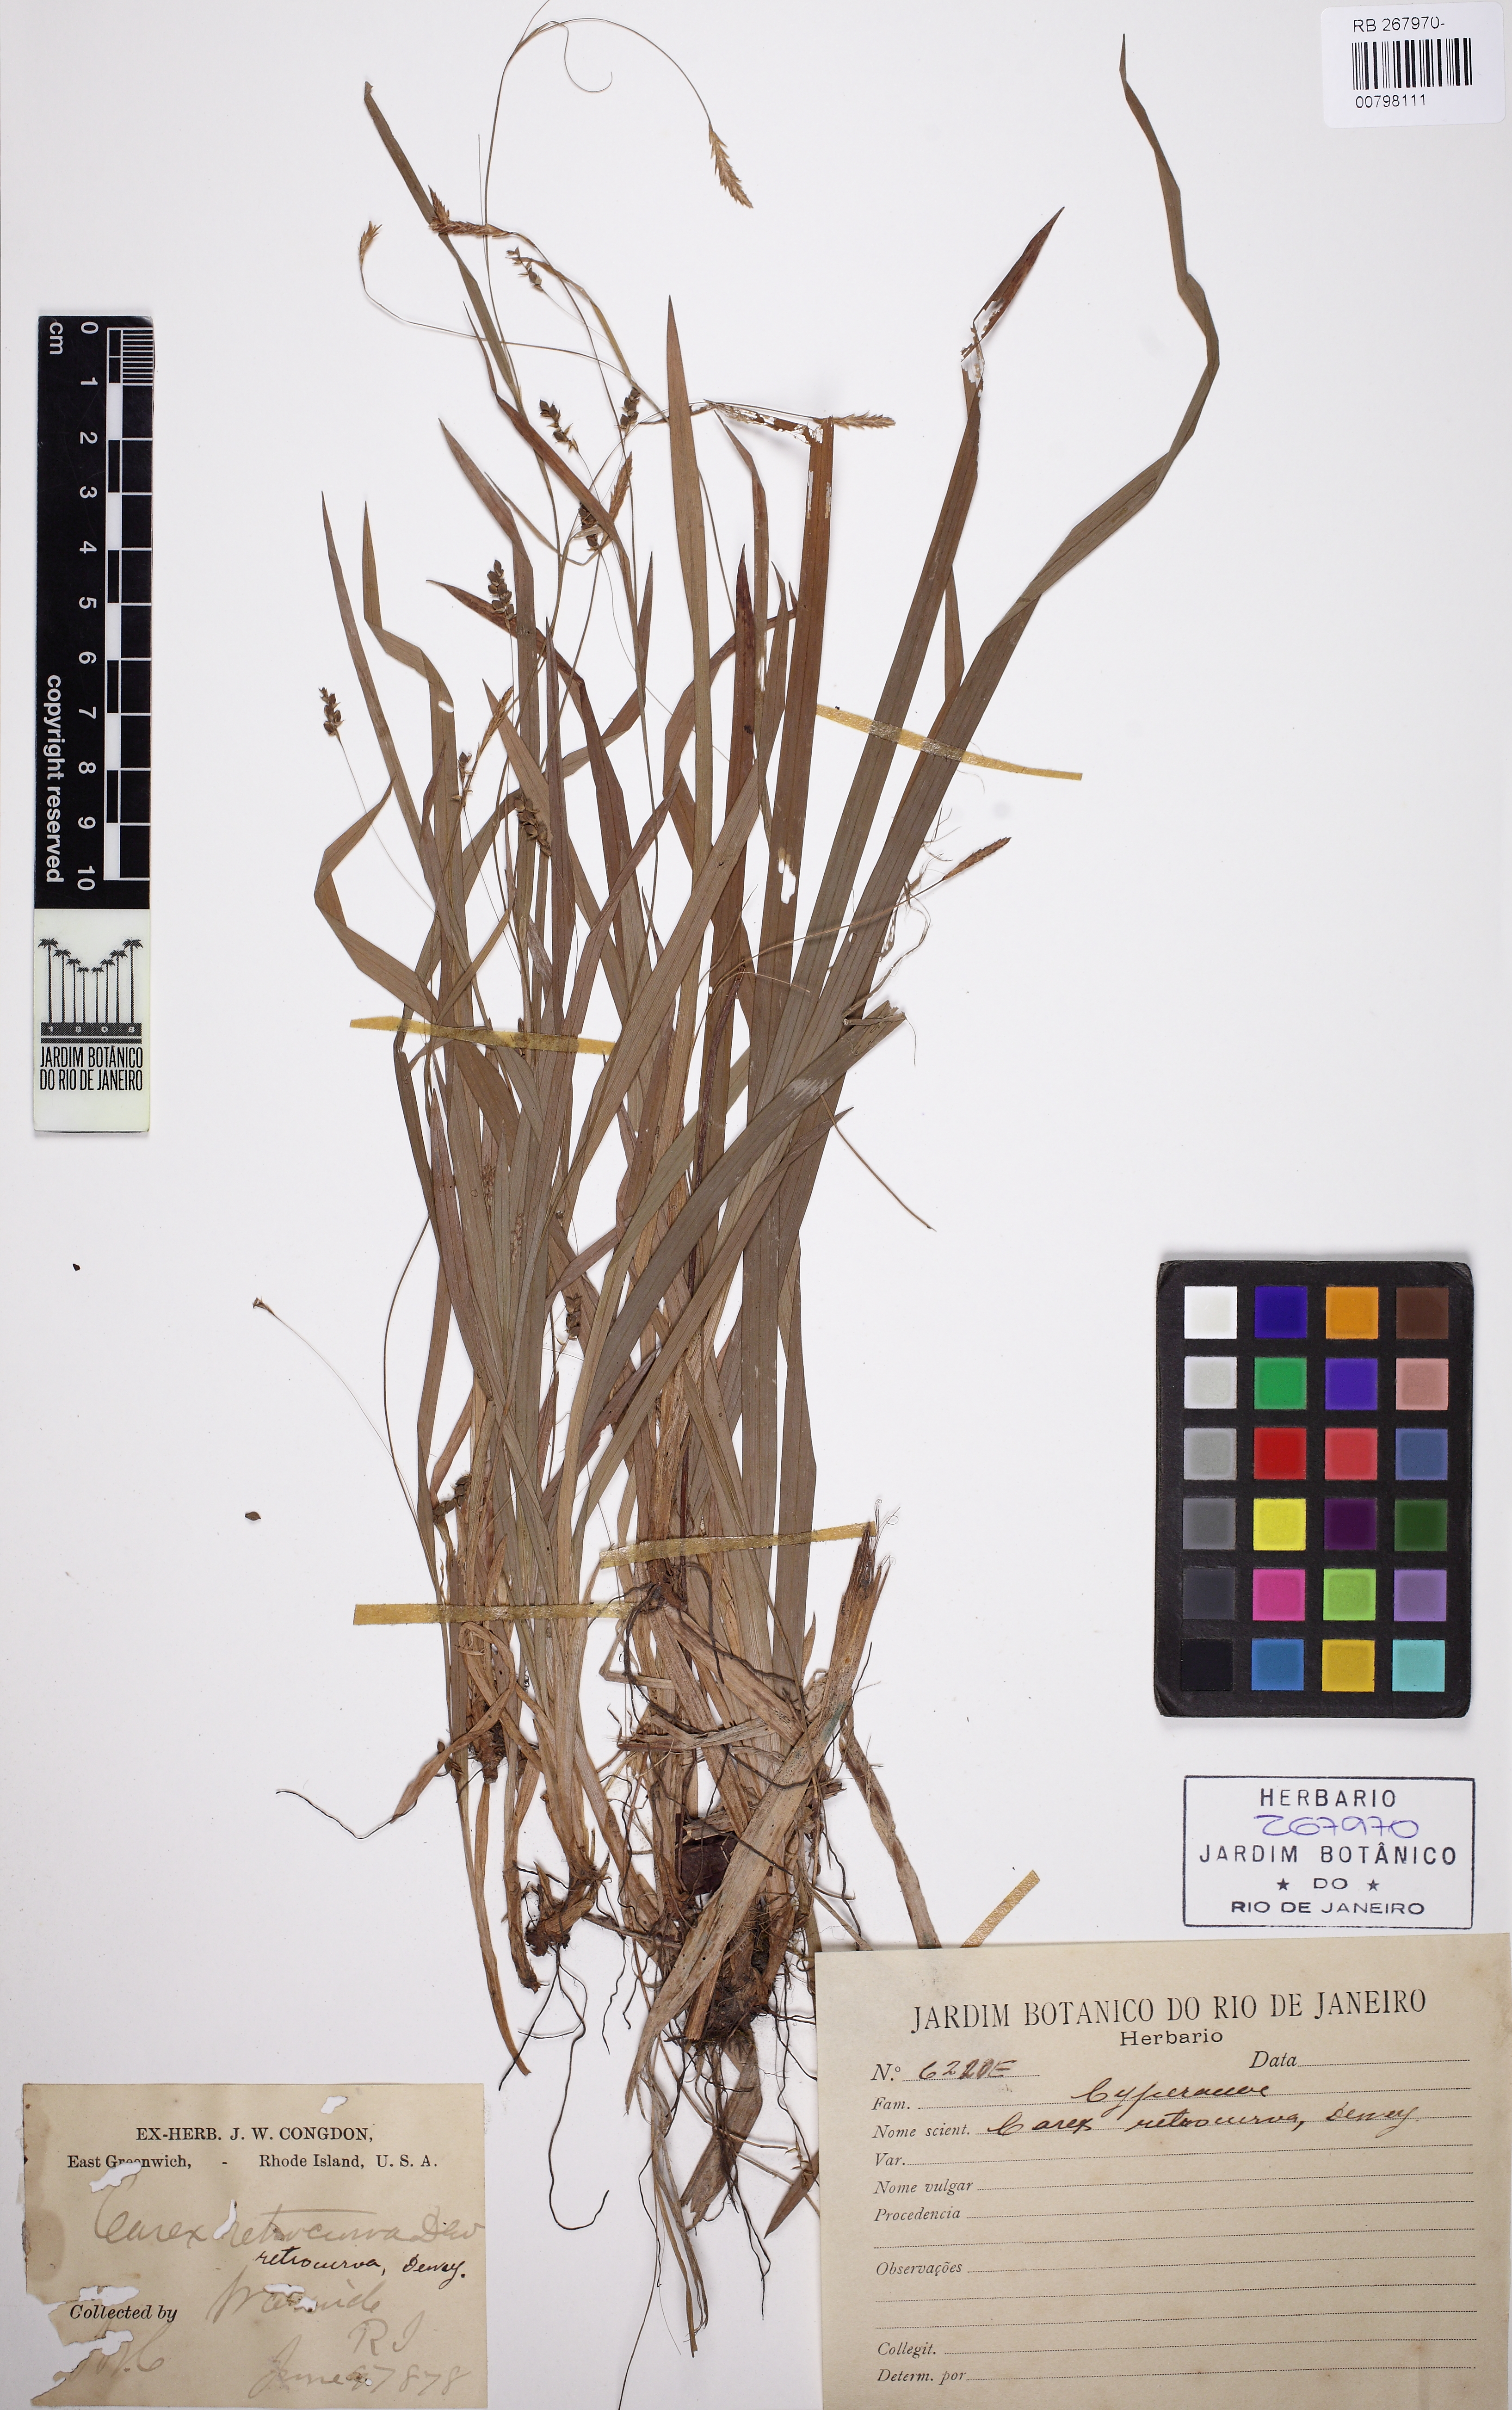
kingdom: Plantae
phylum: Tracheophyta
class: Liliopsida
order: Poales
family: Cyperaceae
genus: Carex
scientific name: Carex laxiculmis
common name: Spreading sedge
